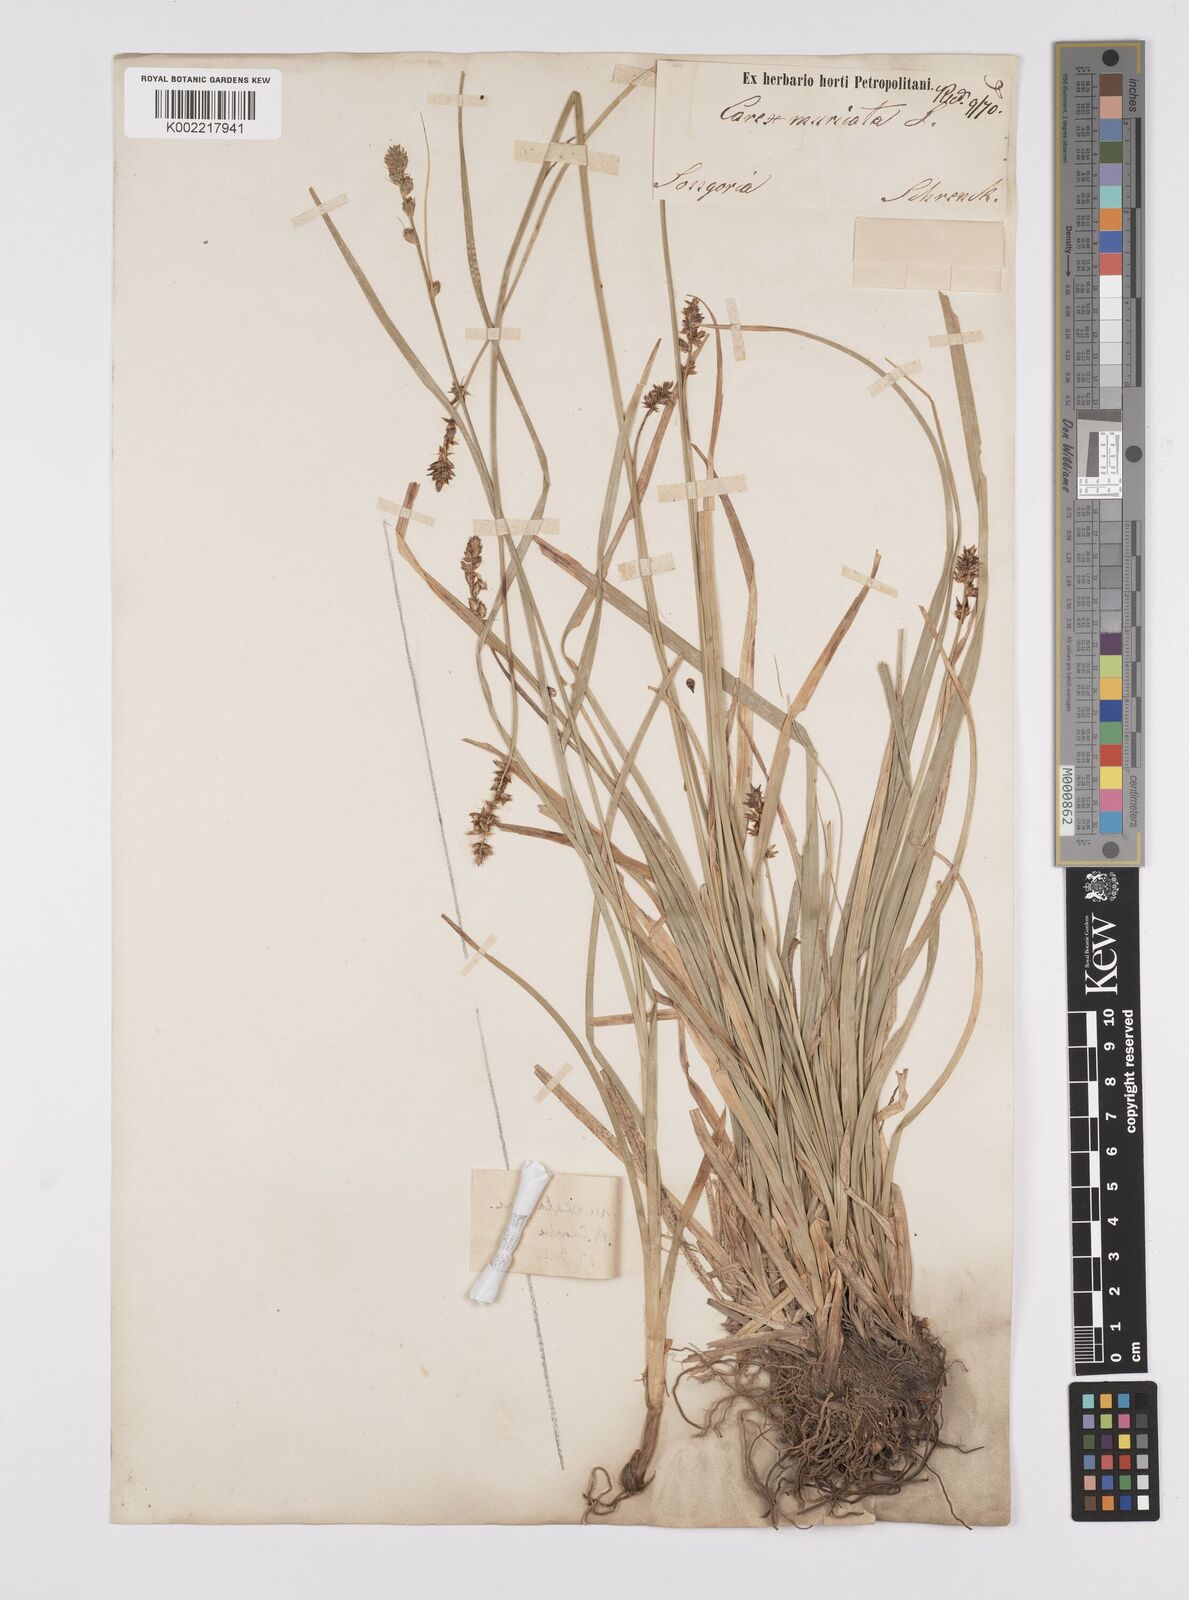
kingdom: Plantae
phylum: Tracheophyta
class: Liliopsida
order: Poales
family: Cyperaceae
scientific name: Cyperaceae
